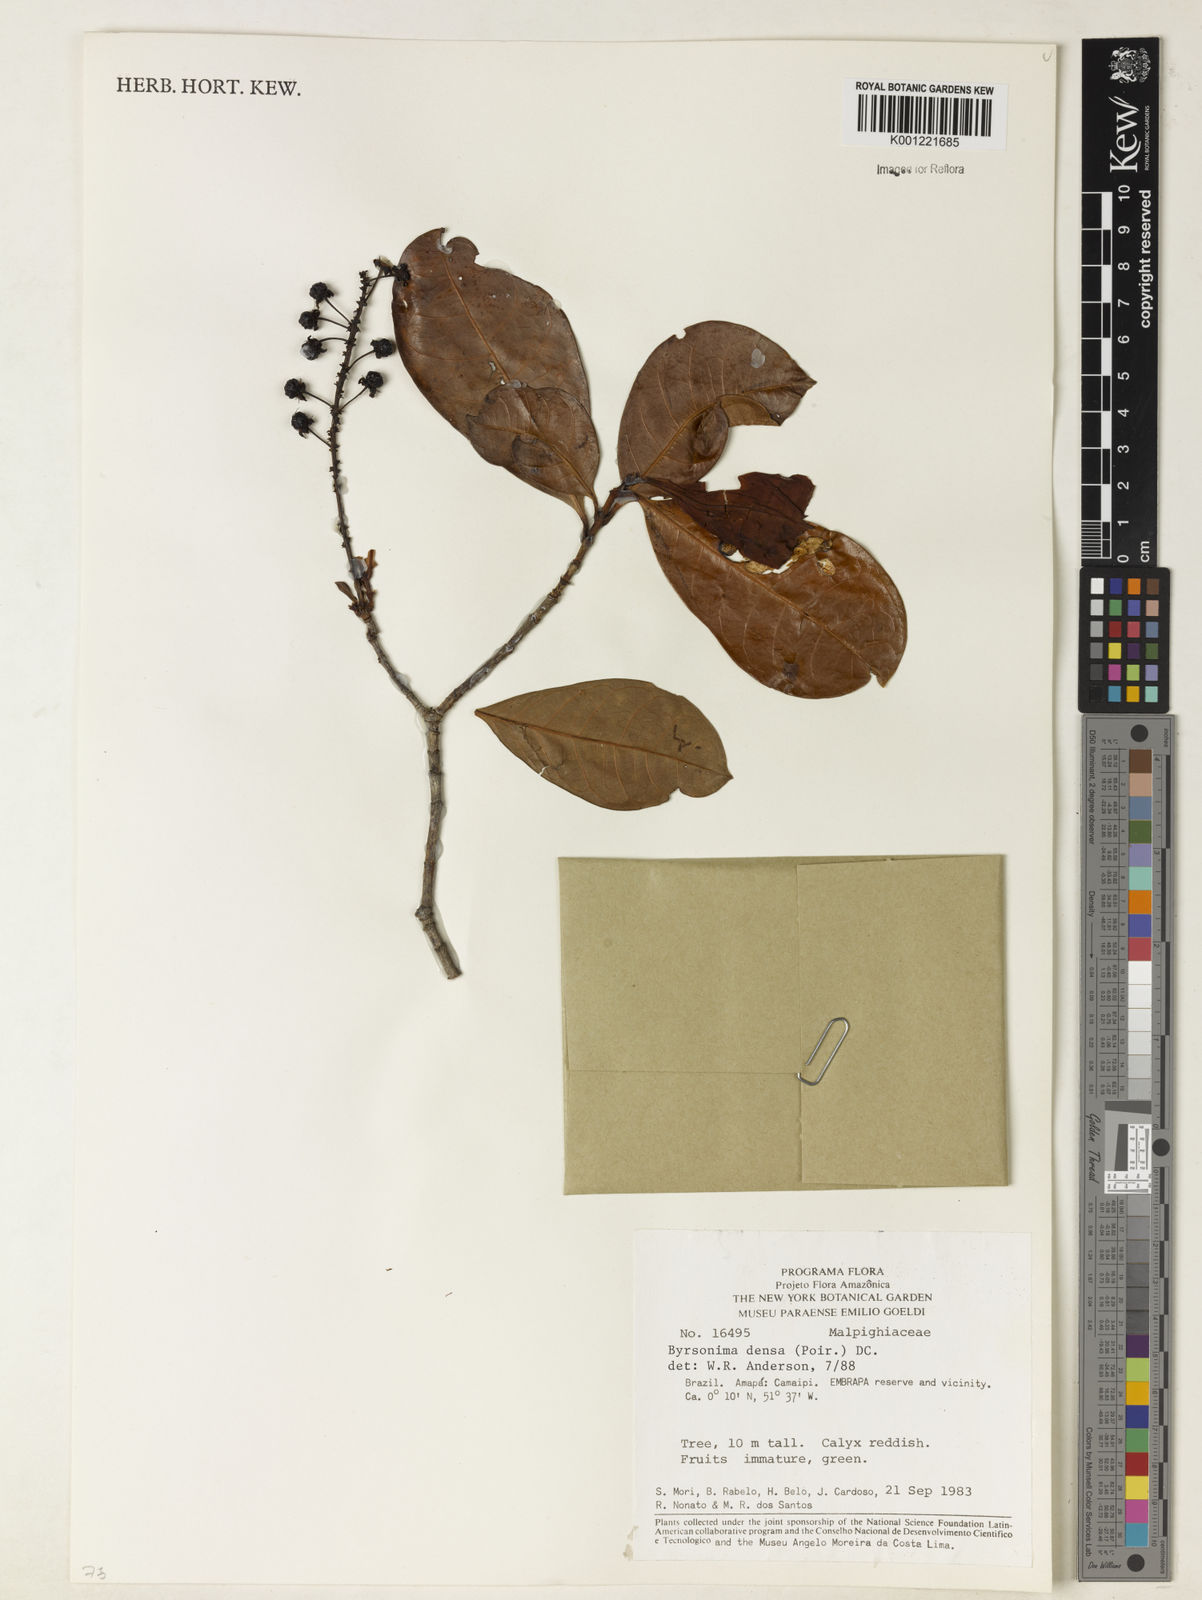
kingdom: Plantae
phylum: Tracheophyta
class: Magnoliopsida
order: Malpighiales
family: Malpighiaceae
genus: Byrsonima
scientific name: Byrsonima densa
